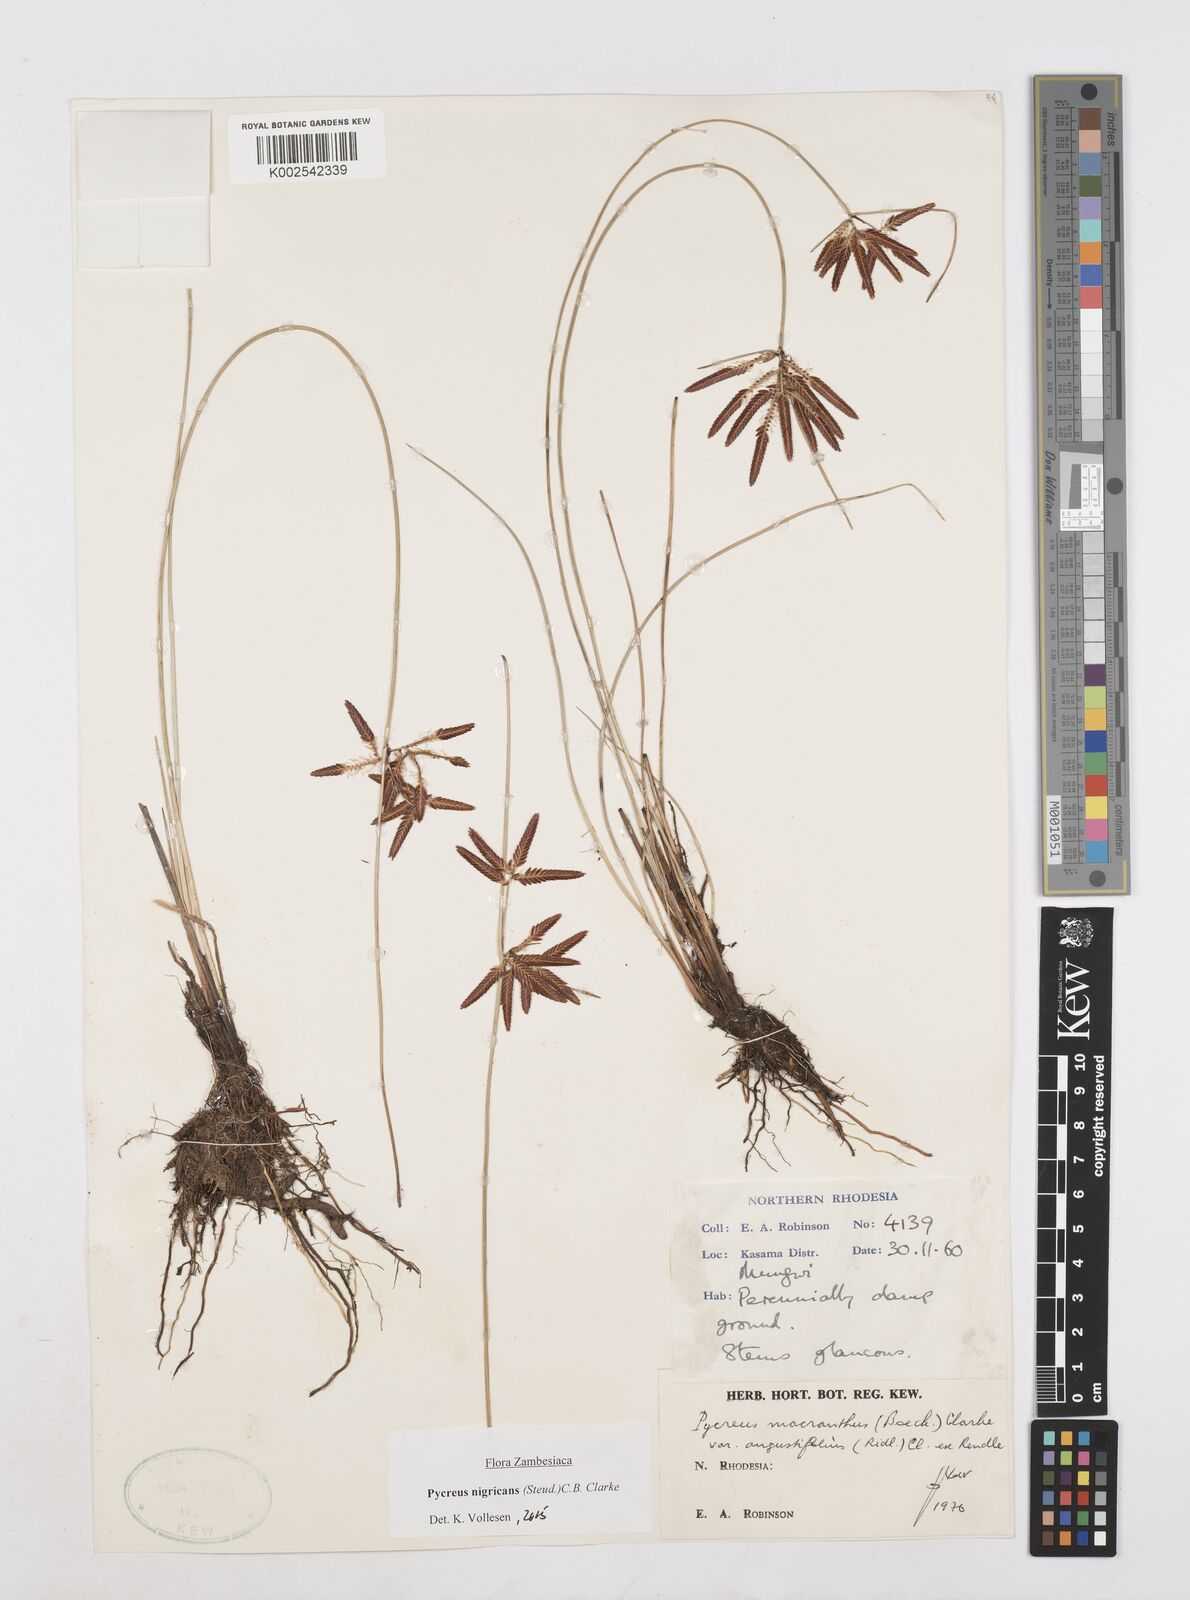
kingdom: Plantae
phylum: Tracheophyta
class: Liliopsida
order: Poales
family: Cyperaceae
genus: Cyperus
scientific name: Cyperus nigricans
